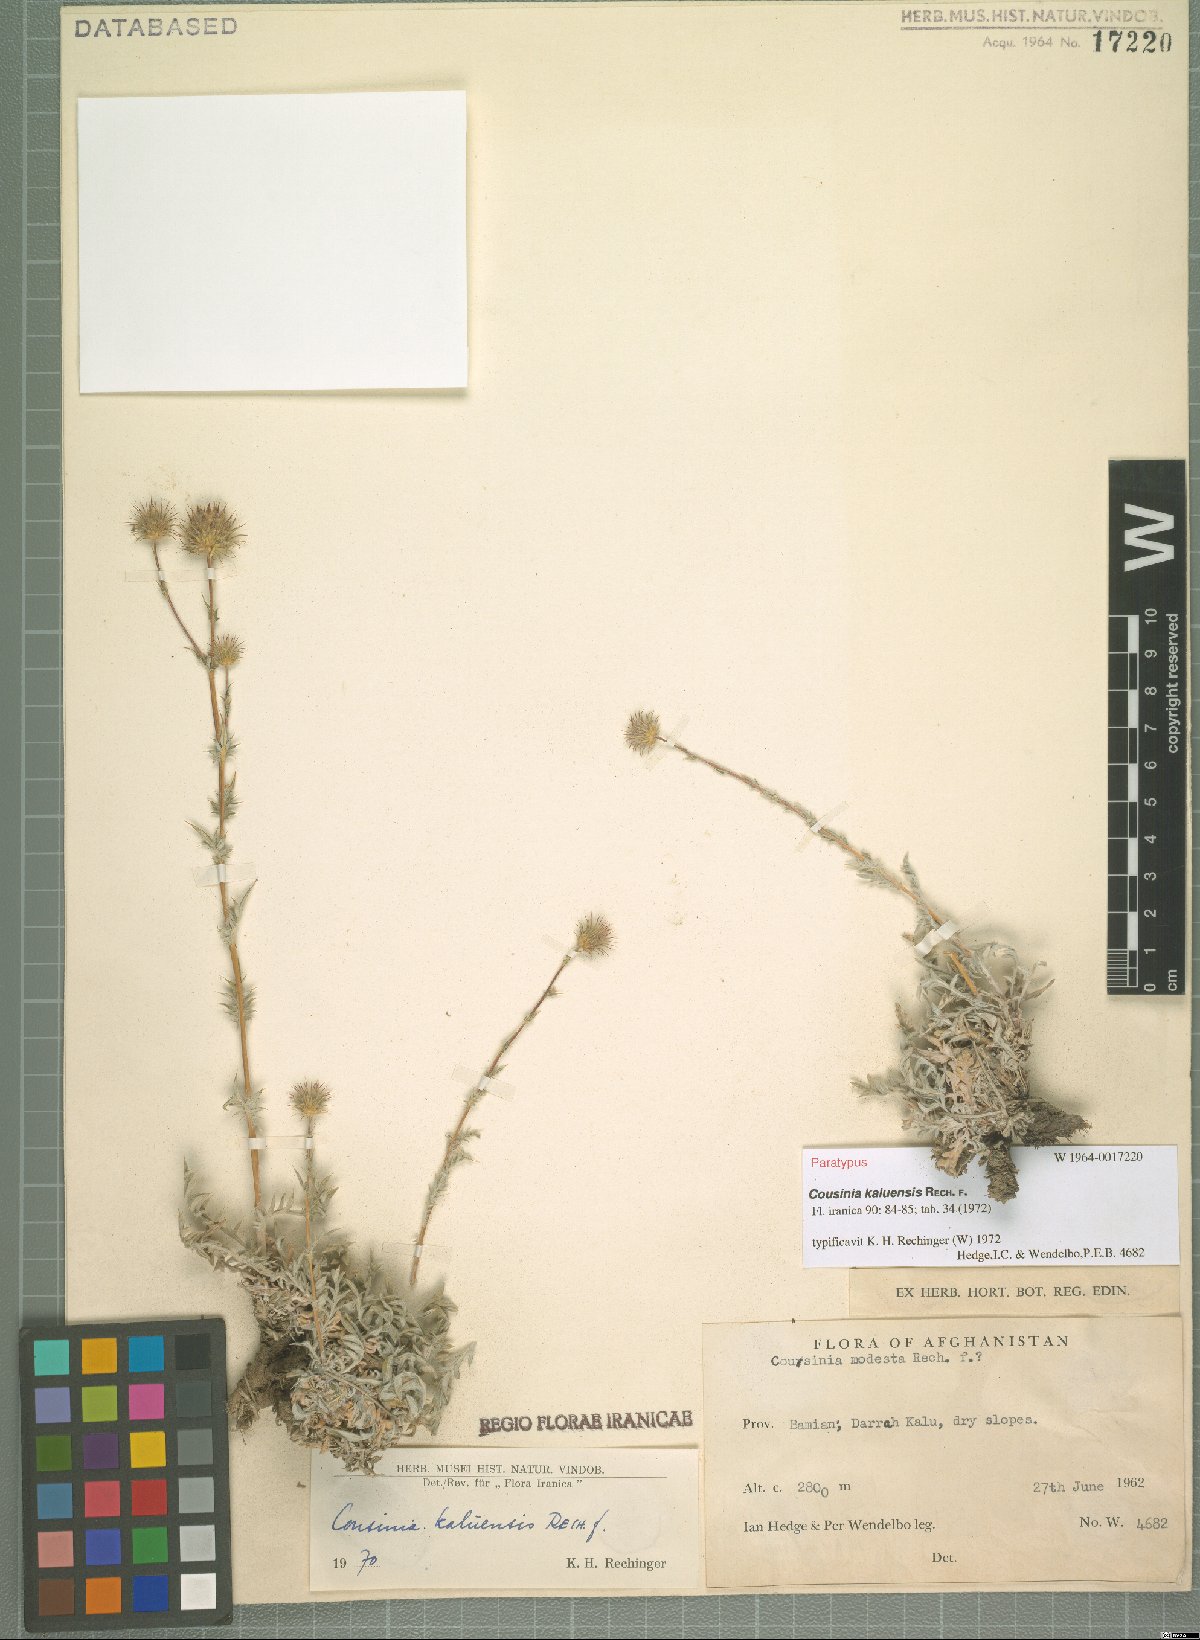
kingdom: Plantae
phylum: Tracheophyta
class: Magnoliopsida
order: Asterales
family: Asteraceae
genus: Cousinia
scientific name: Cousinia kaluensis
